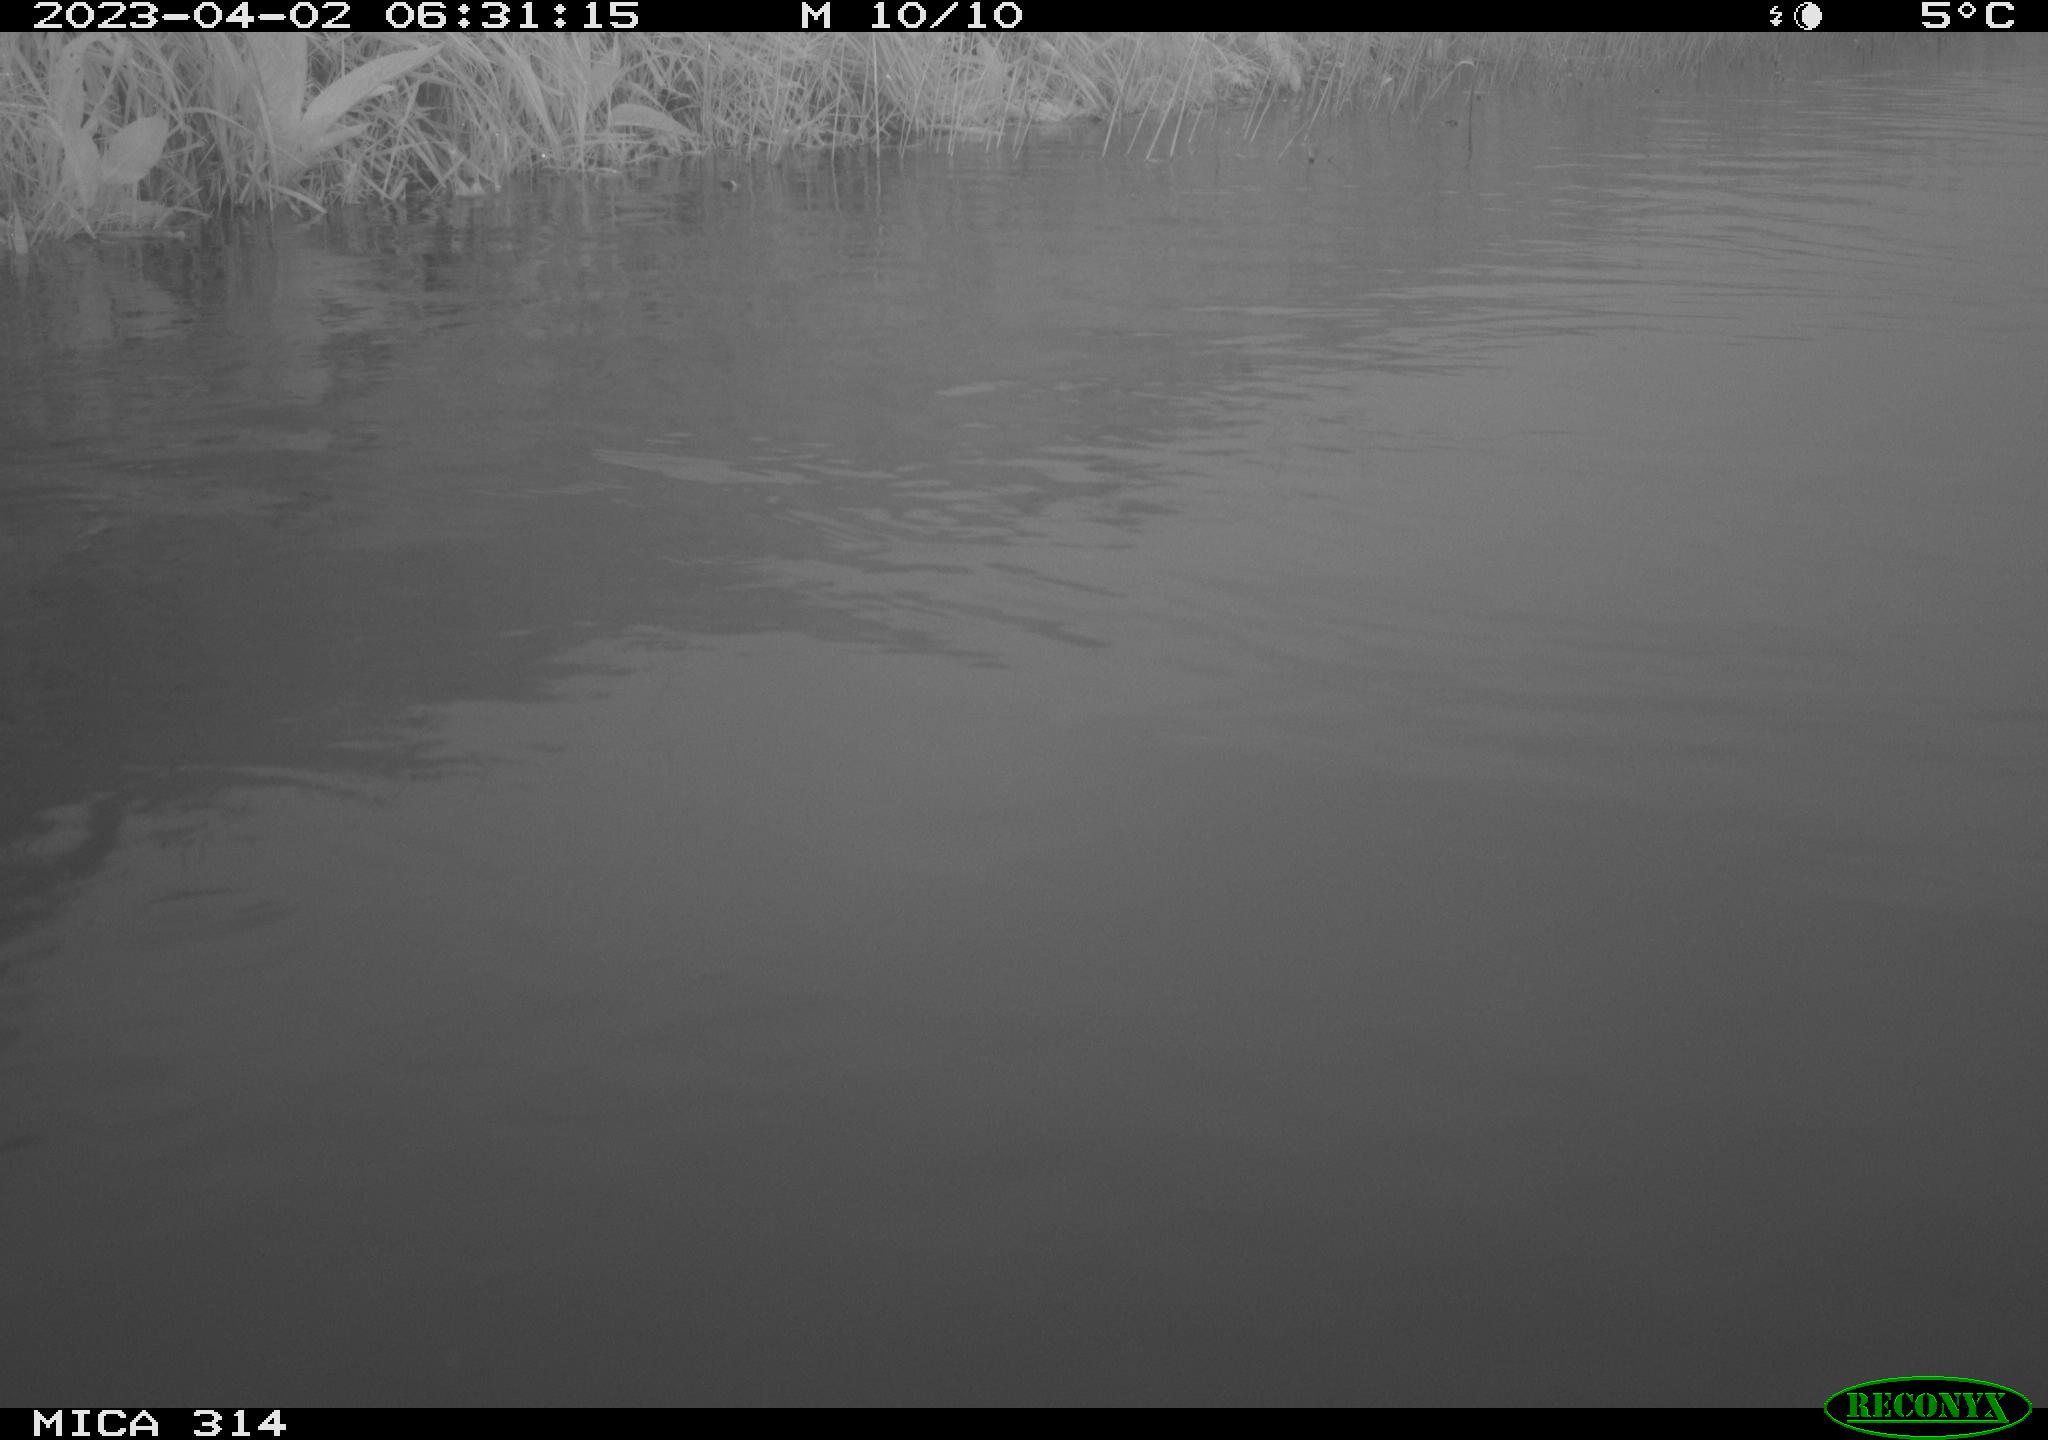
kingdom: Animalia
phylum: Chordata
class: Aves
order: Anseriformes
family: Anatidae
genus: Anas
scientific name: Anas
